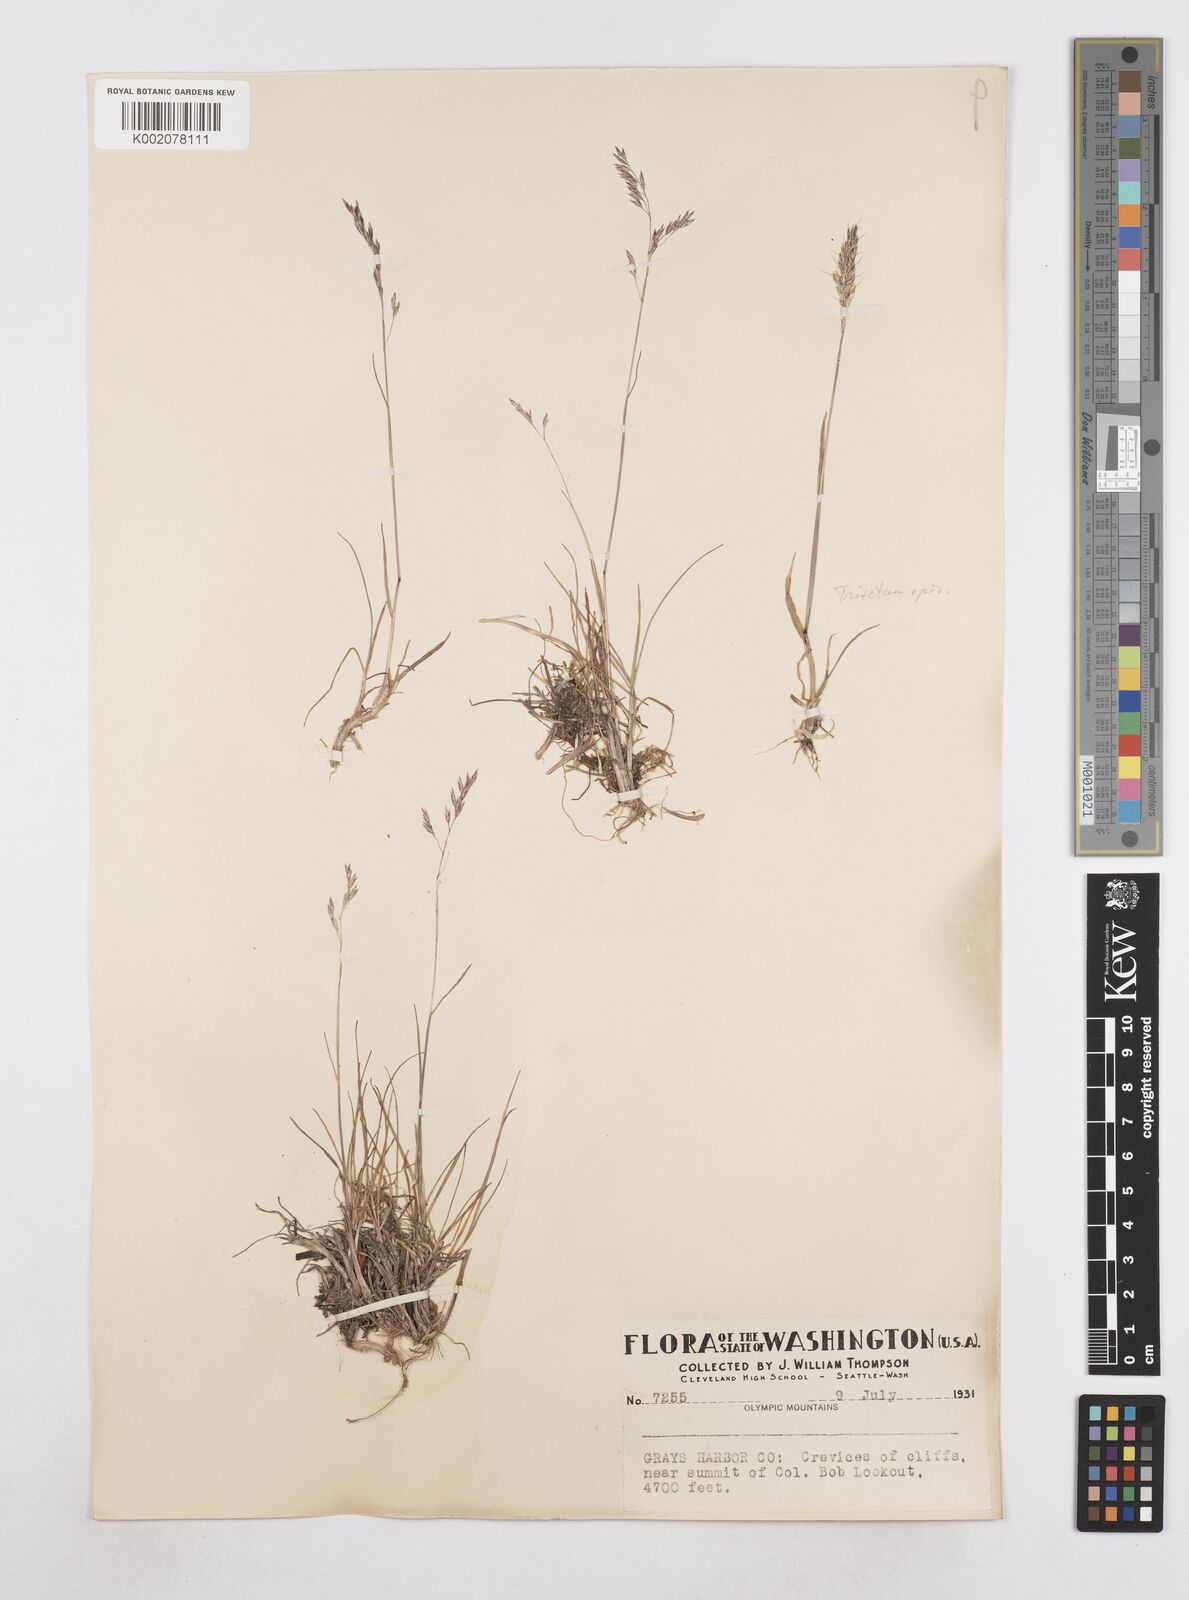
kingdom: Plantae
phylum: Tracheophyta
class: Liliopsida
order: Poales
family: Poaceae
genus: Poa
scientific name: Poa
